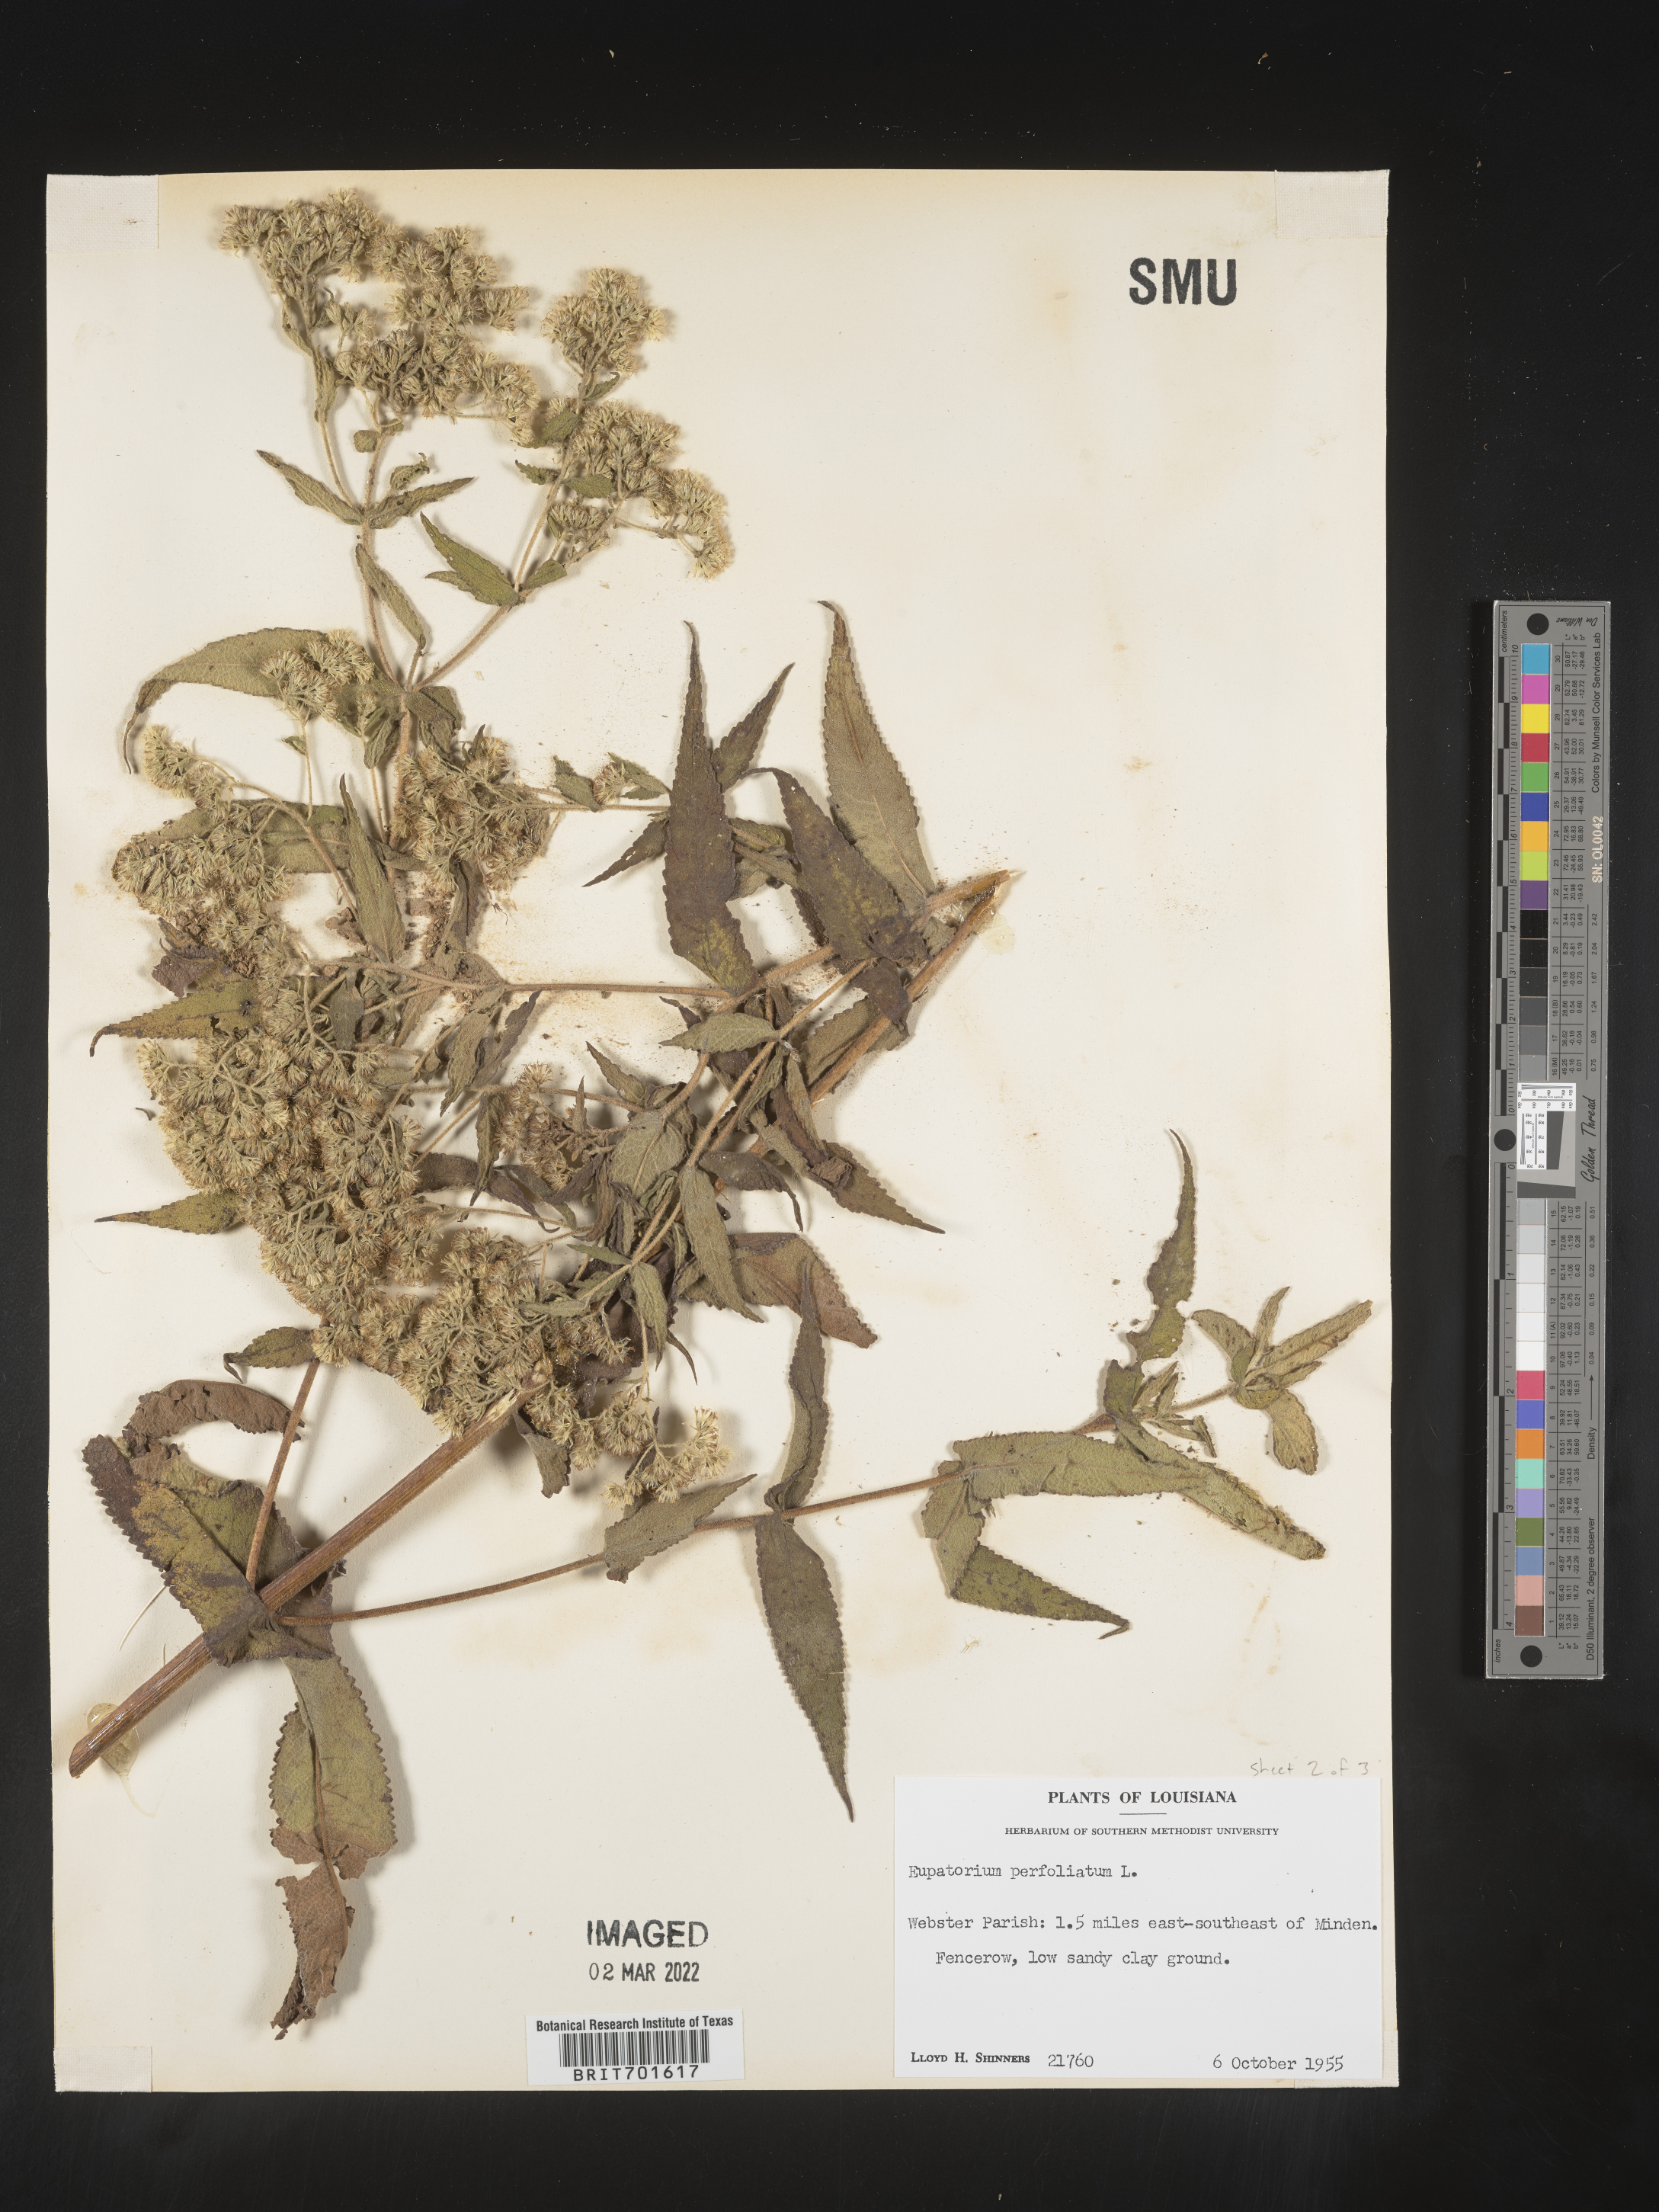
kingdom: Plantae
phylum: Tracheophyta
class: Magnoliopsida
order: Asterales
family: Asteraceae
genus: Eupatorium
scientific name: Eupatorium perfoliatum
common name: Boneset
